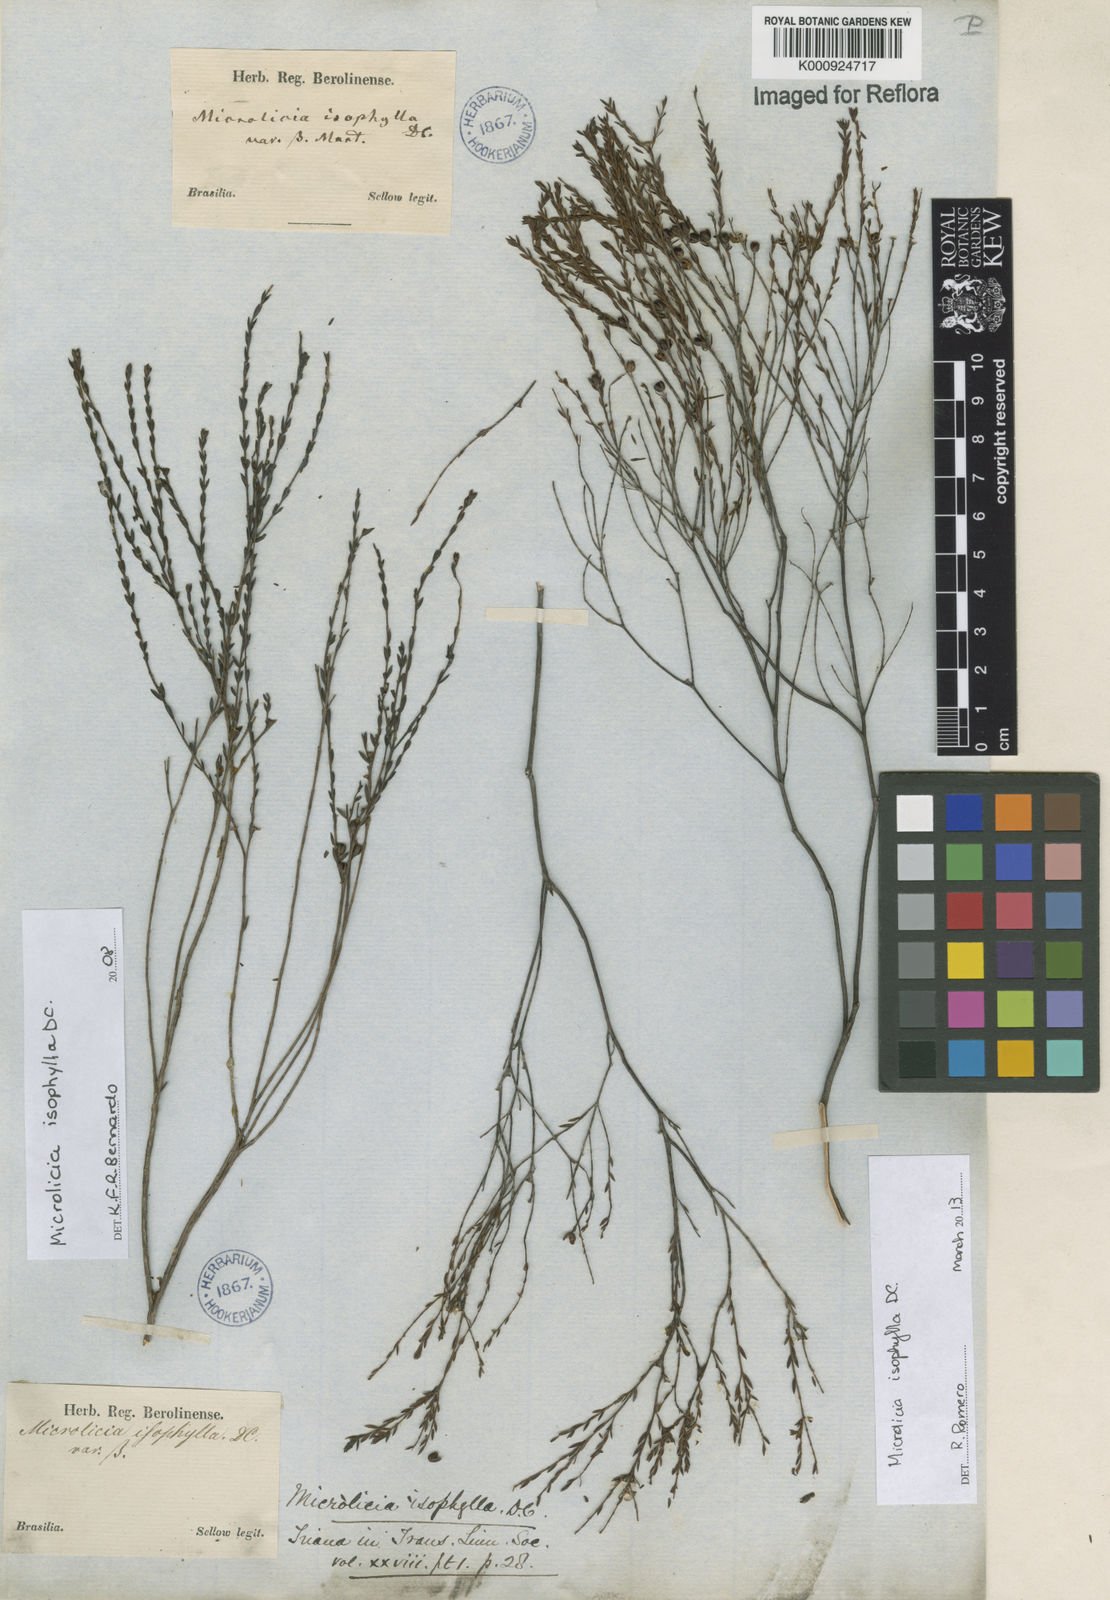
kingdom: Plantae
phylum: Tracheophyta
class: Magnoliopsida
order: Myrtales
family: Melastomataceae
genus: Microlicia
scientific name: Microlicia isophylla
